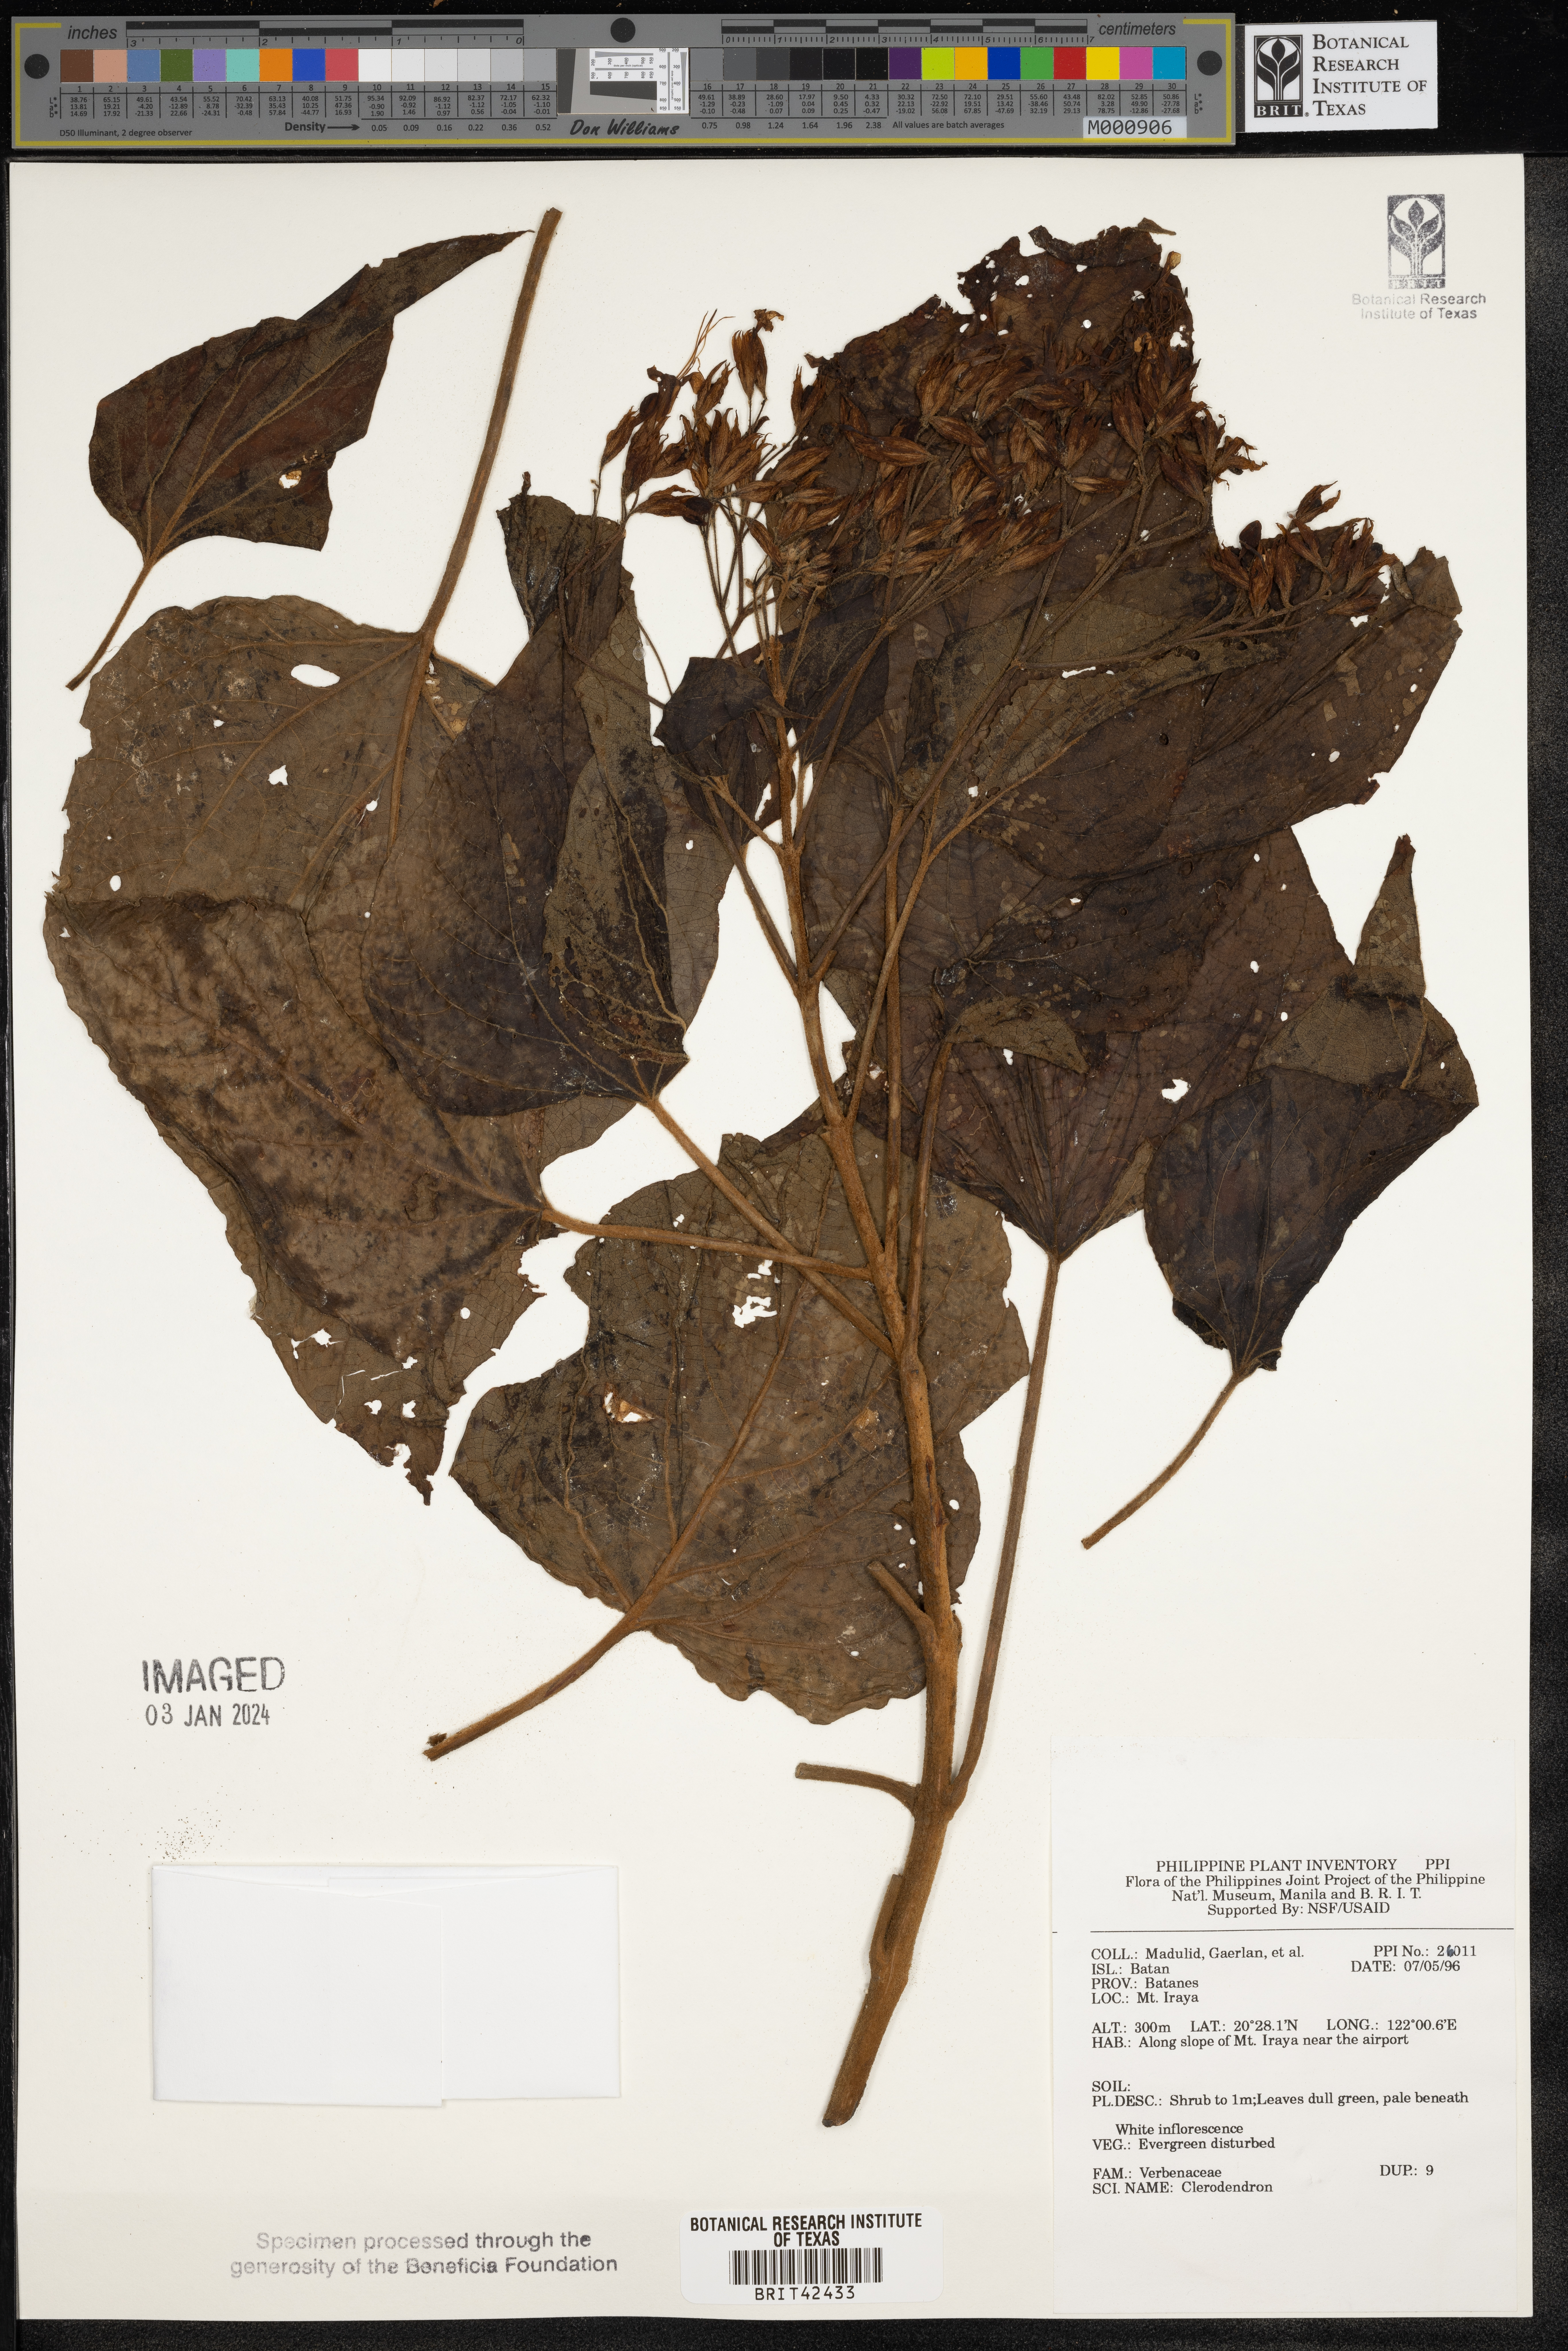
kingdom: Plantae
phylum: Tracheophyta
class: Magnoliopsida
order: Lamiales
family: Lamiaceae
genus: Clerodendrum
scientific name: Clerodendrum
